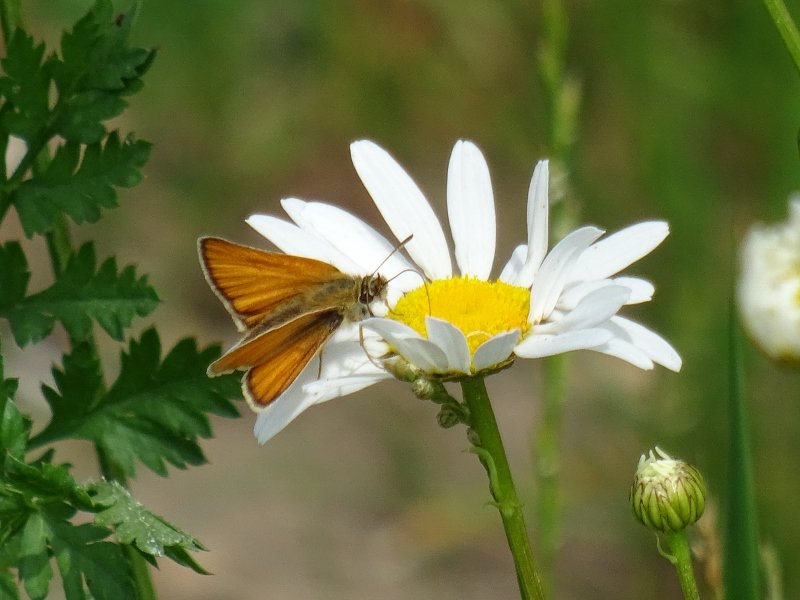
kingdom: Animalia
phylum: Arthropoda
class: Insecta
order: Lepidoptera
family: Hesperiidae
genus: Thymelicus
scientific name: Thymelicus lineola
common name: European Skipper
